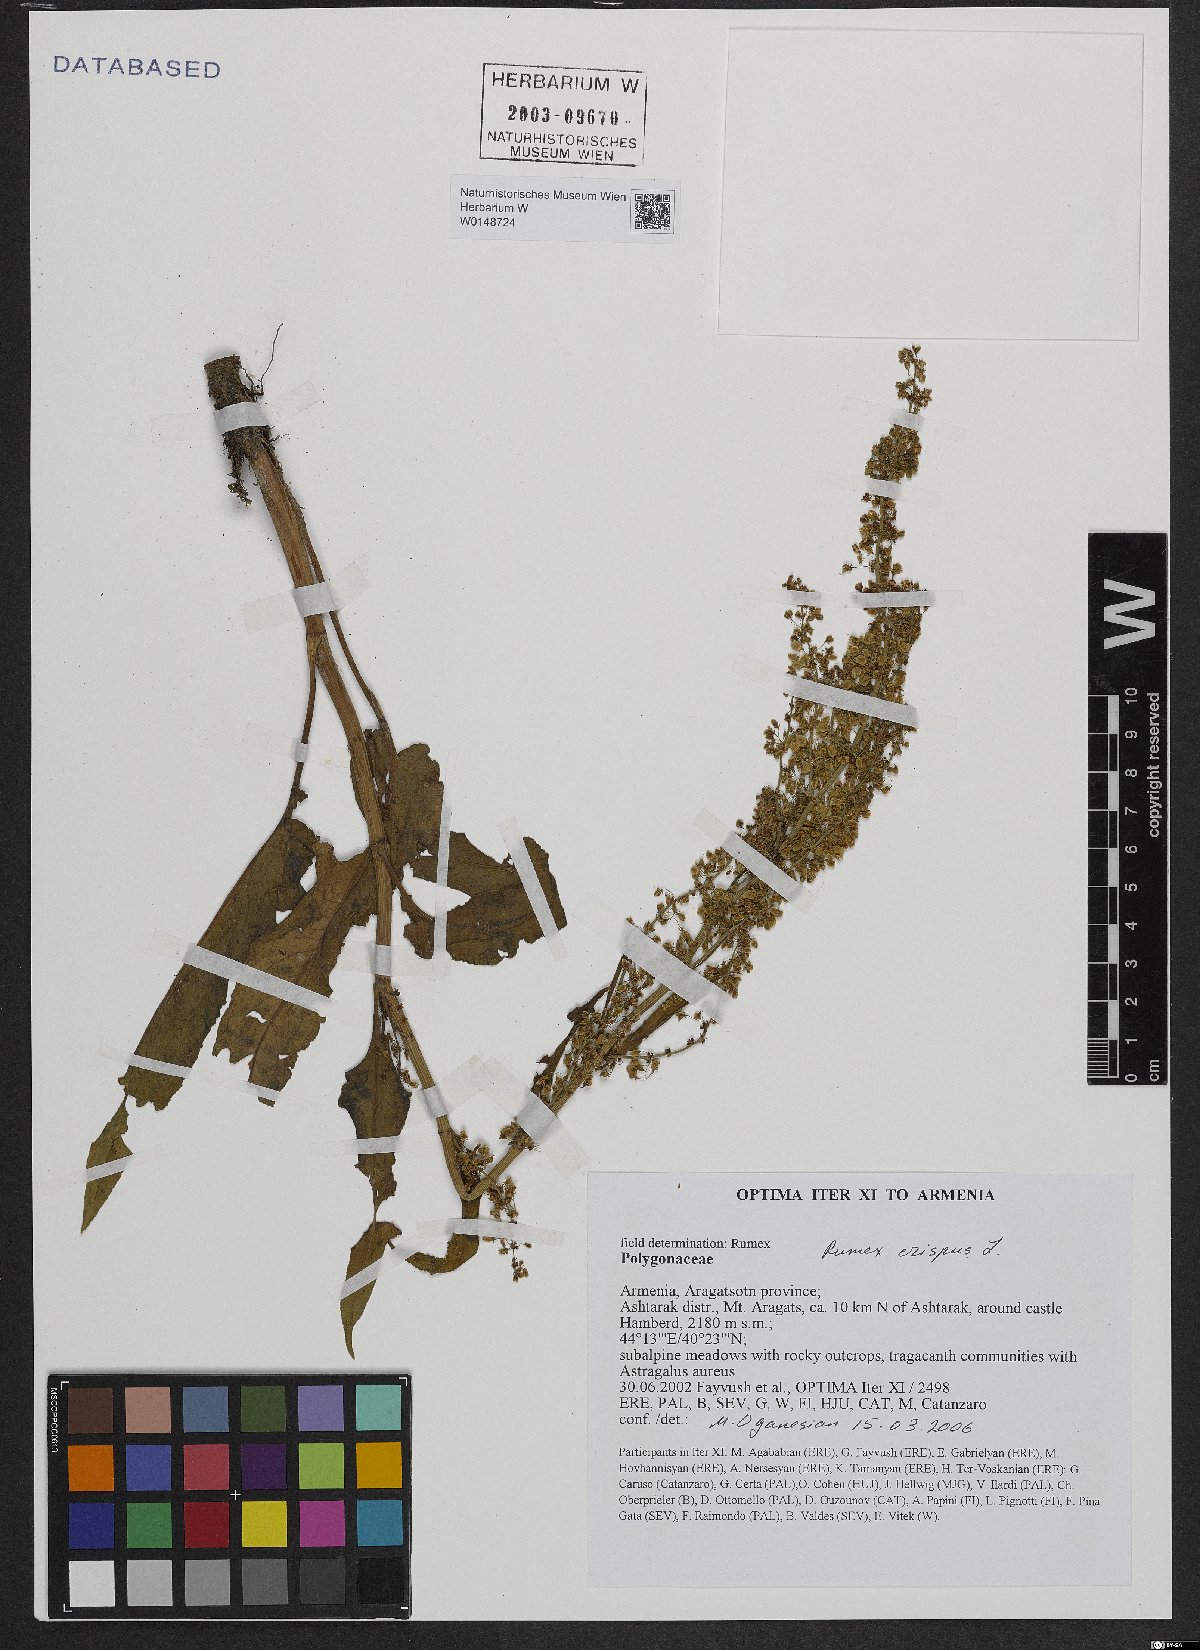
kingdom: Plantae
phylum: Tracheophyta
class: Magnoliopsida
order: Caryophyllales
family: Polygonaceae
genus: Rumex
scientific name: Rumex crispus
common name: Curled dock
